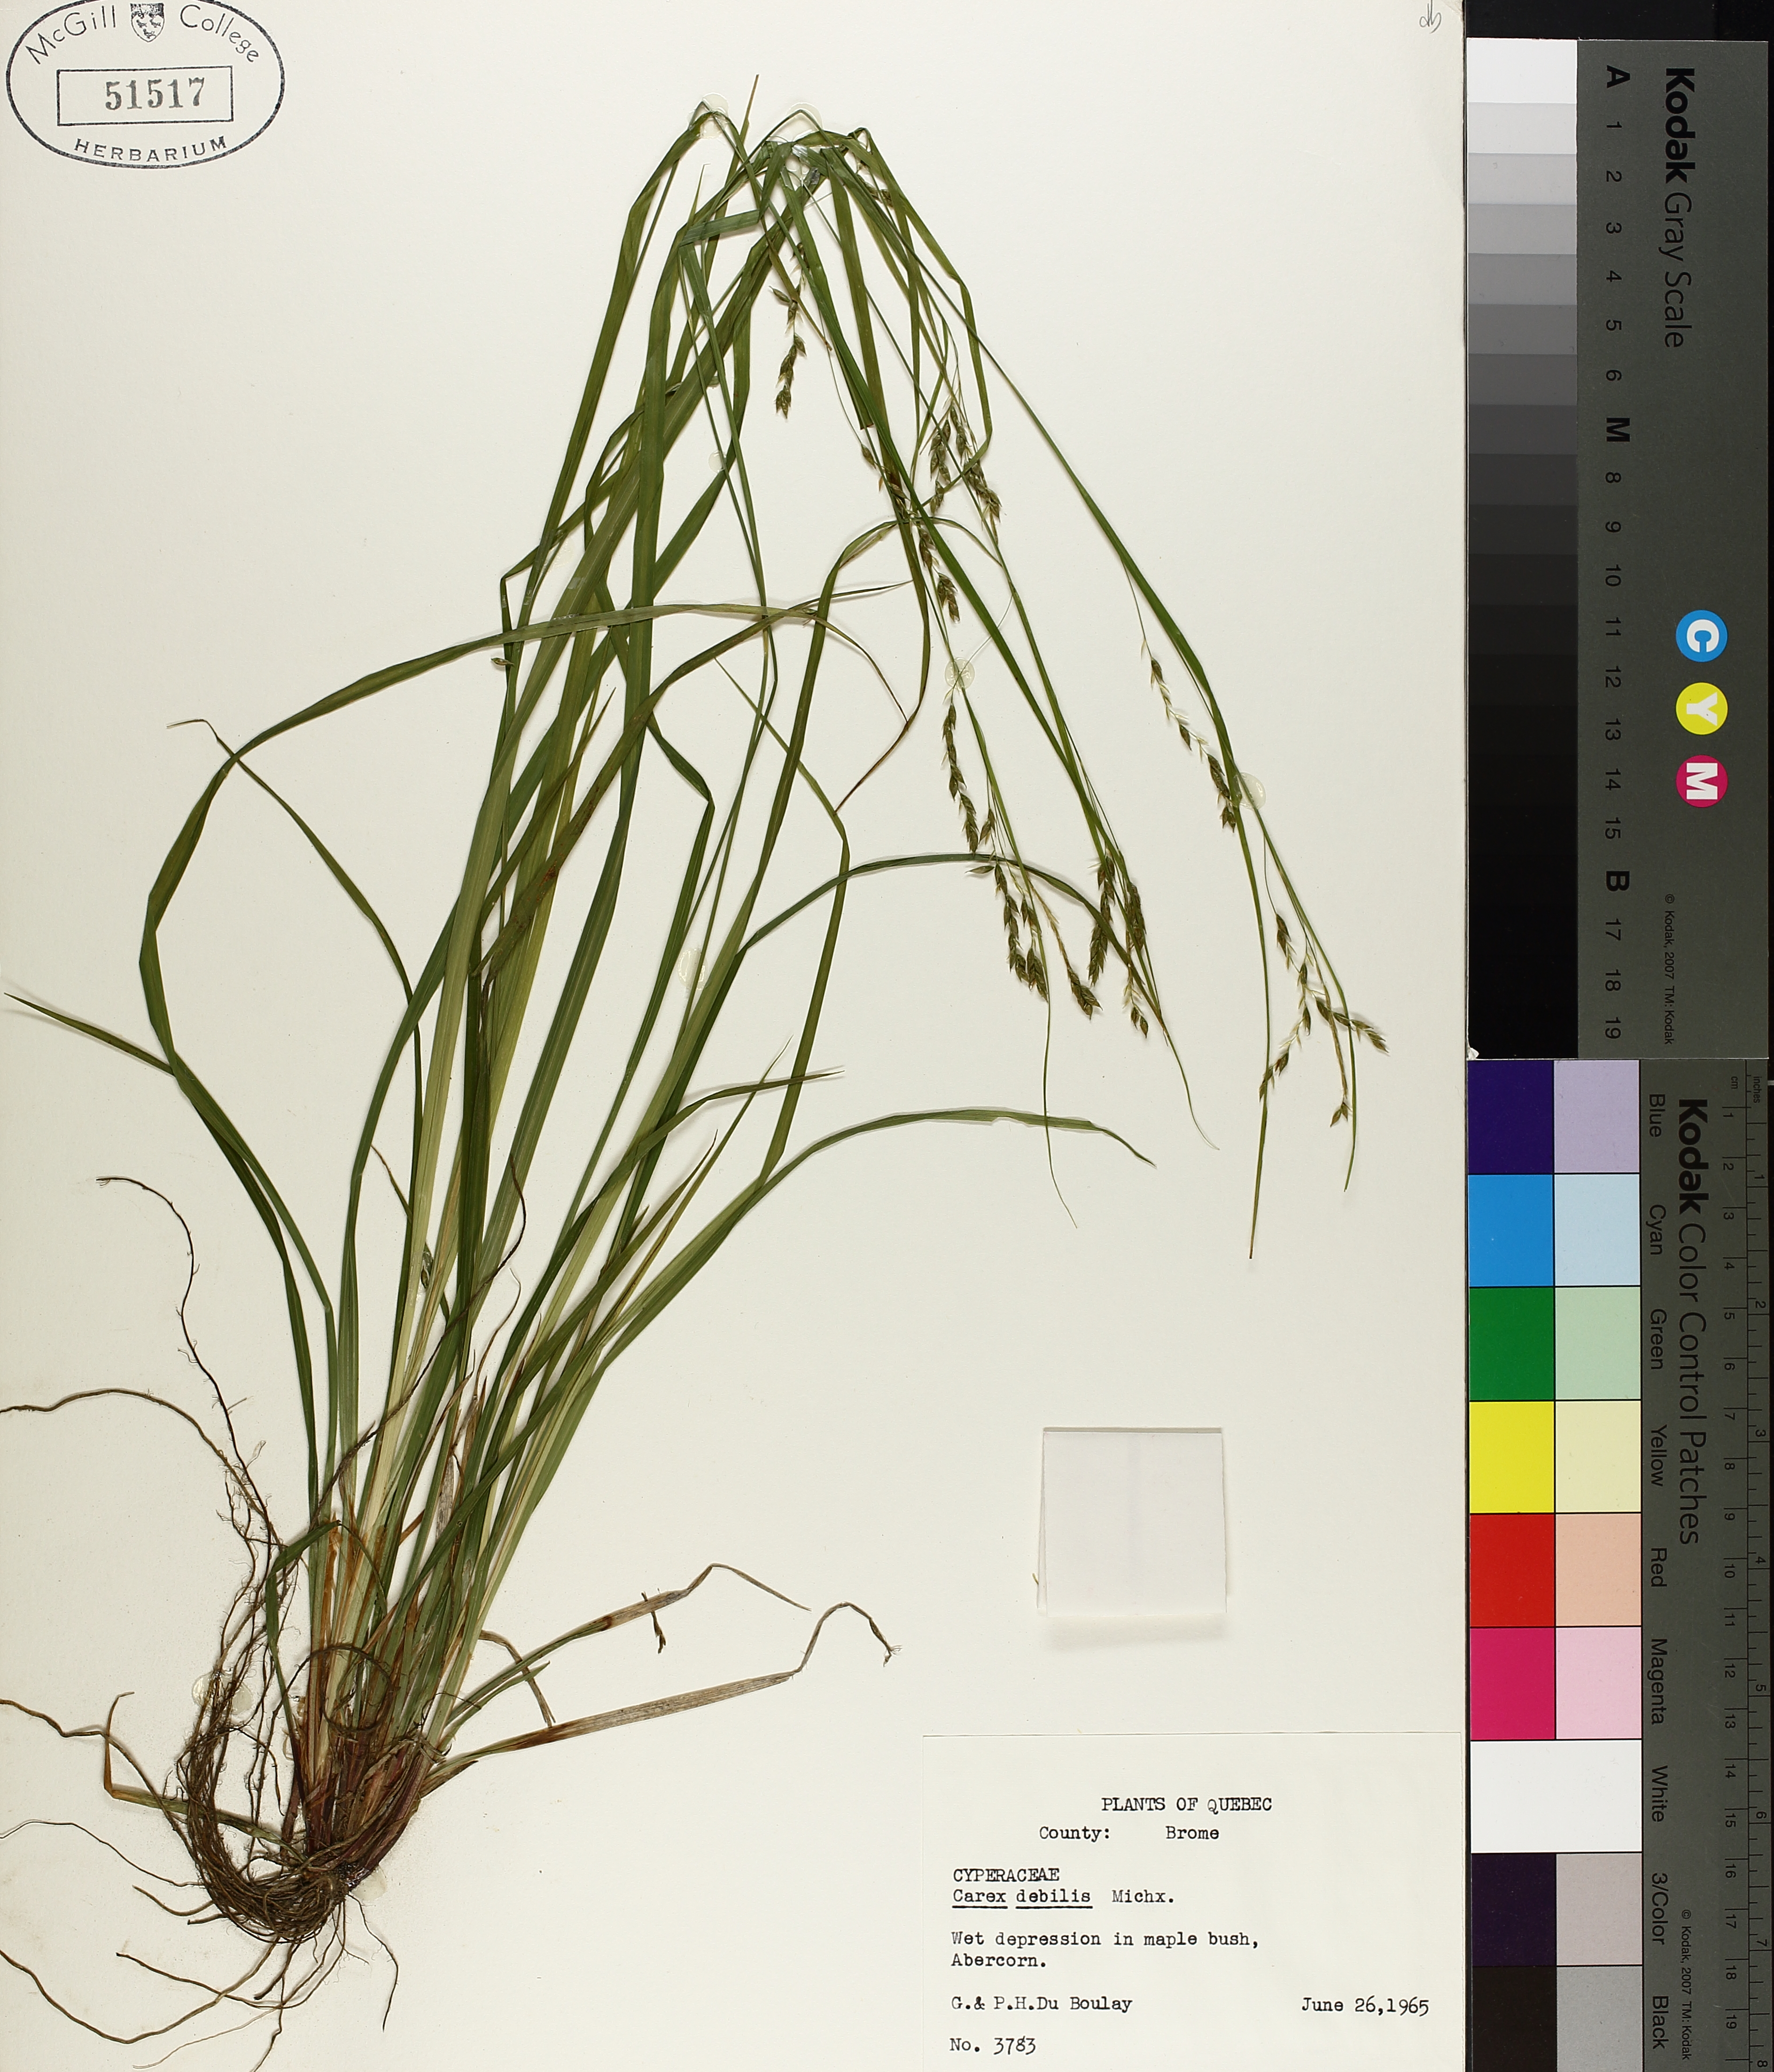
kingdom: Plantae
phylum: Tracheophyta
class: Liliopsida
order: Poales
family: Cyperaceae
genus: Carex
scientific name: Carex debilis
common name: White-edge sedge
